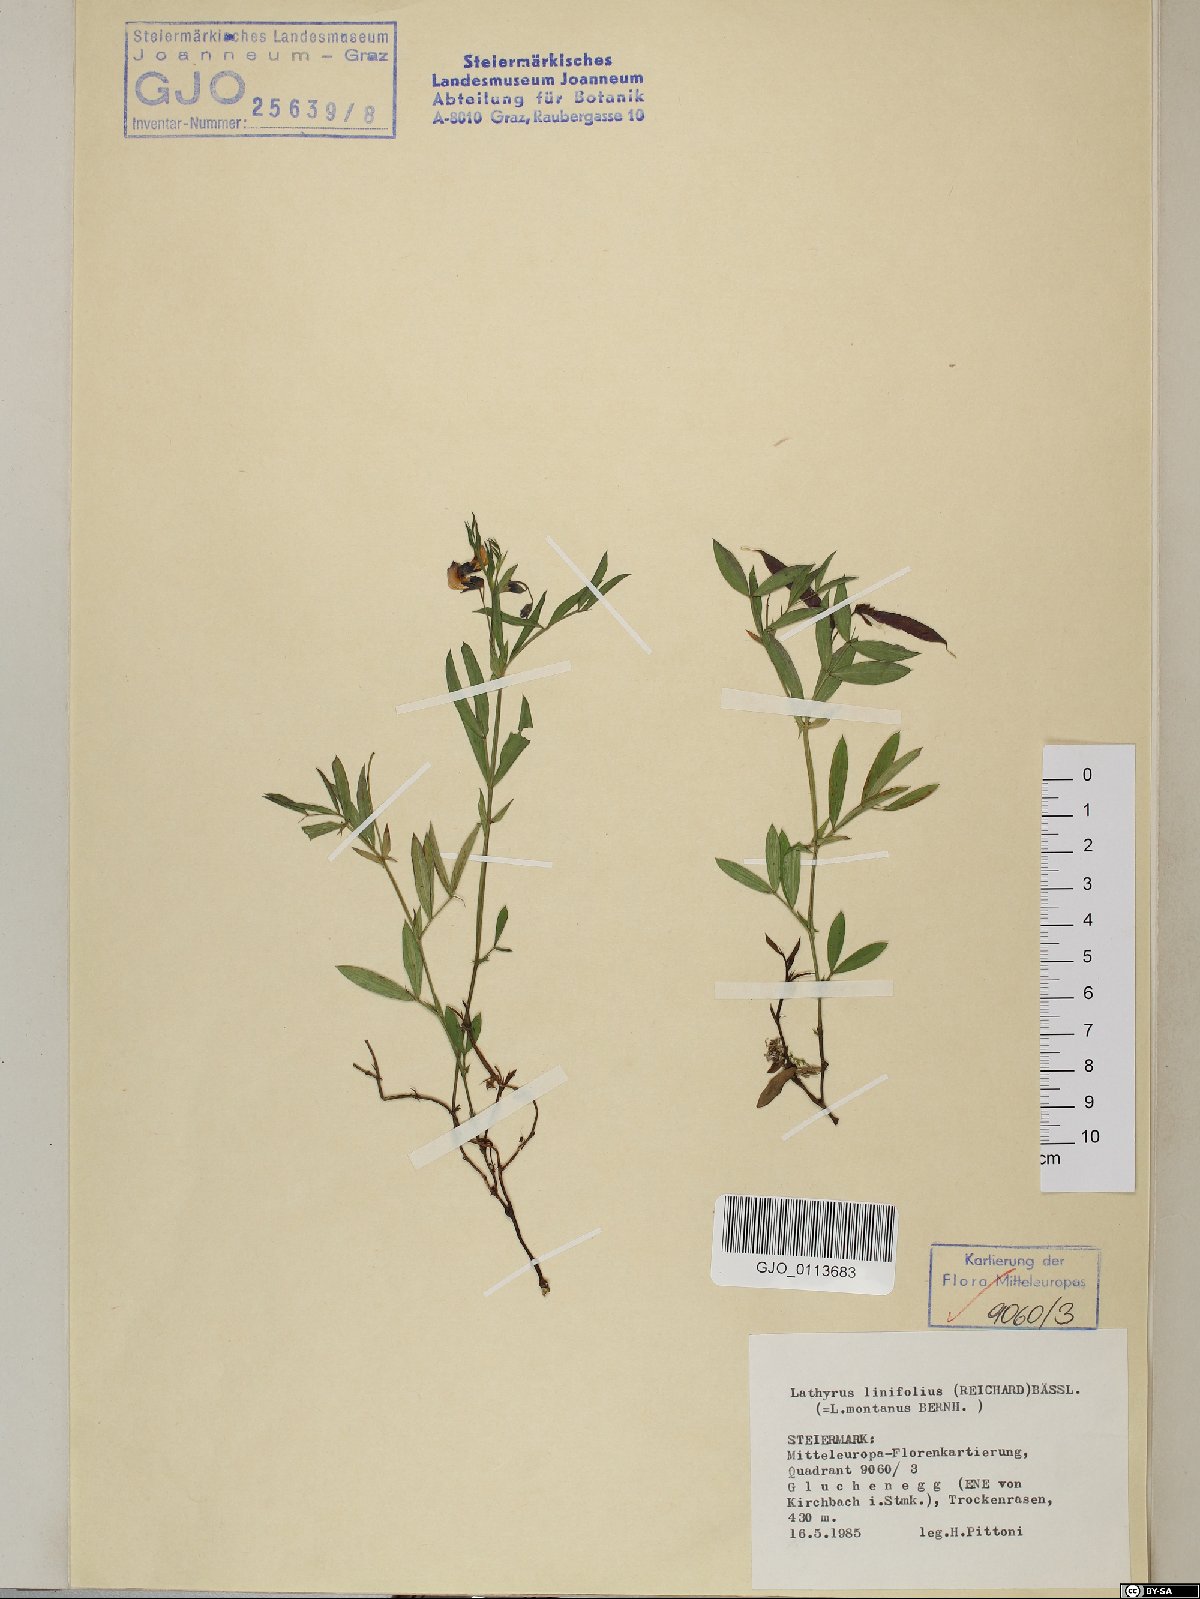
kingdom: Plantae
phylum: Tracheophyta
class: Magnoliopsida
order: Fabales
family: Fabaceae
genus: Lathyrus
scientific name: Lathyrus linifolius
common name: Bitter-vetch
